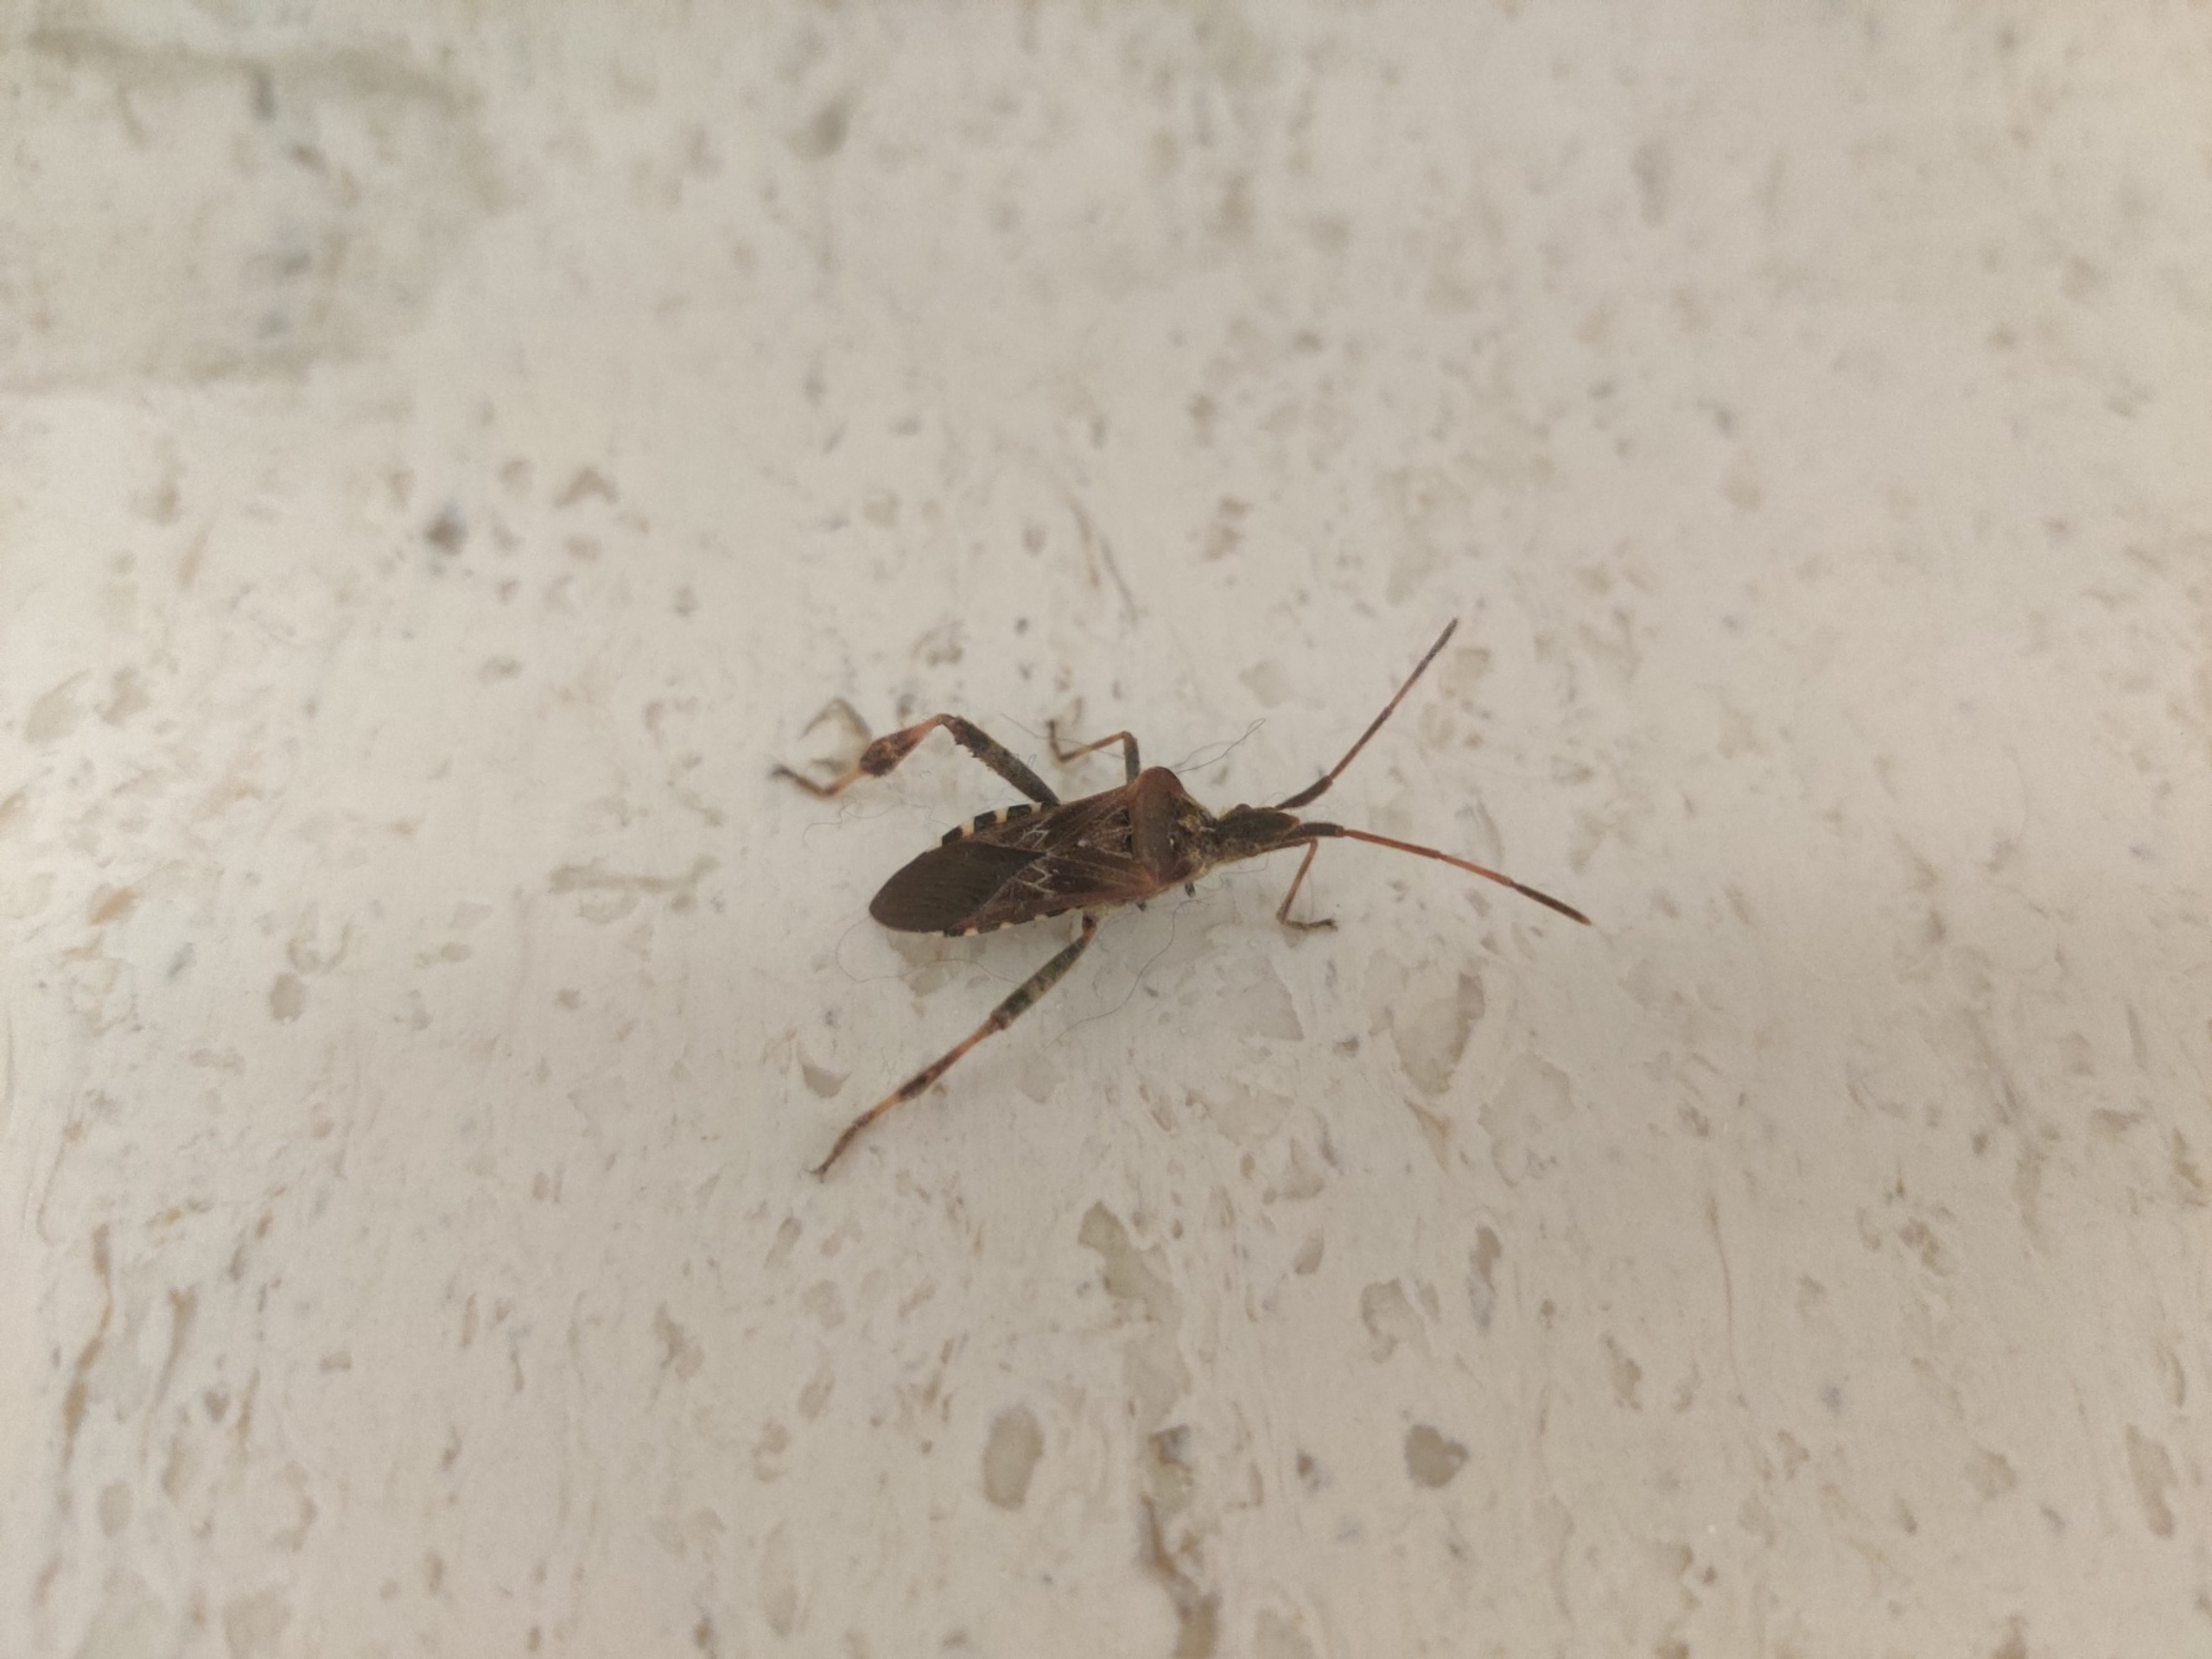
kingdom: Animalia
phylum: Arthropoda
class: Insecta
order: Hemiptera
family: Coreidae
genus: Leptoglossus
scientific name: Leptoglossus occidentalis
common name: Amerikansk fyrretæge
